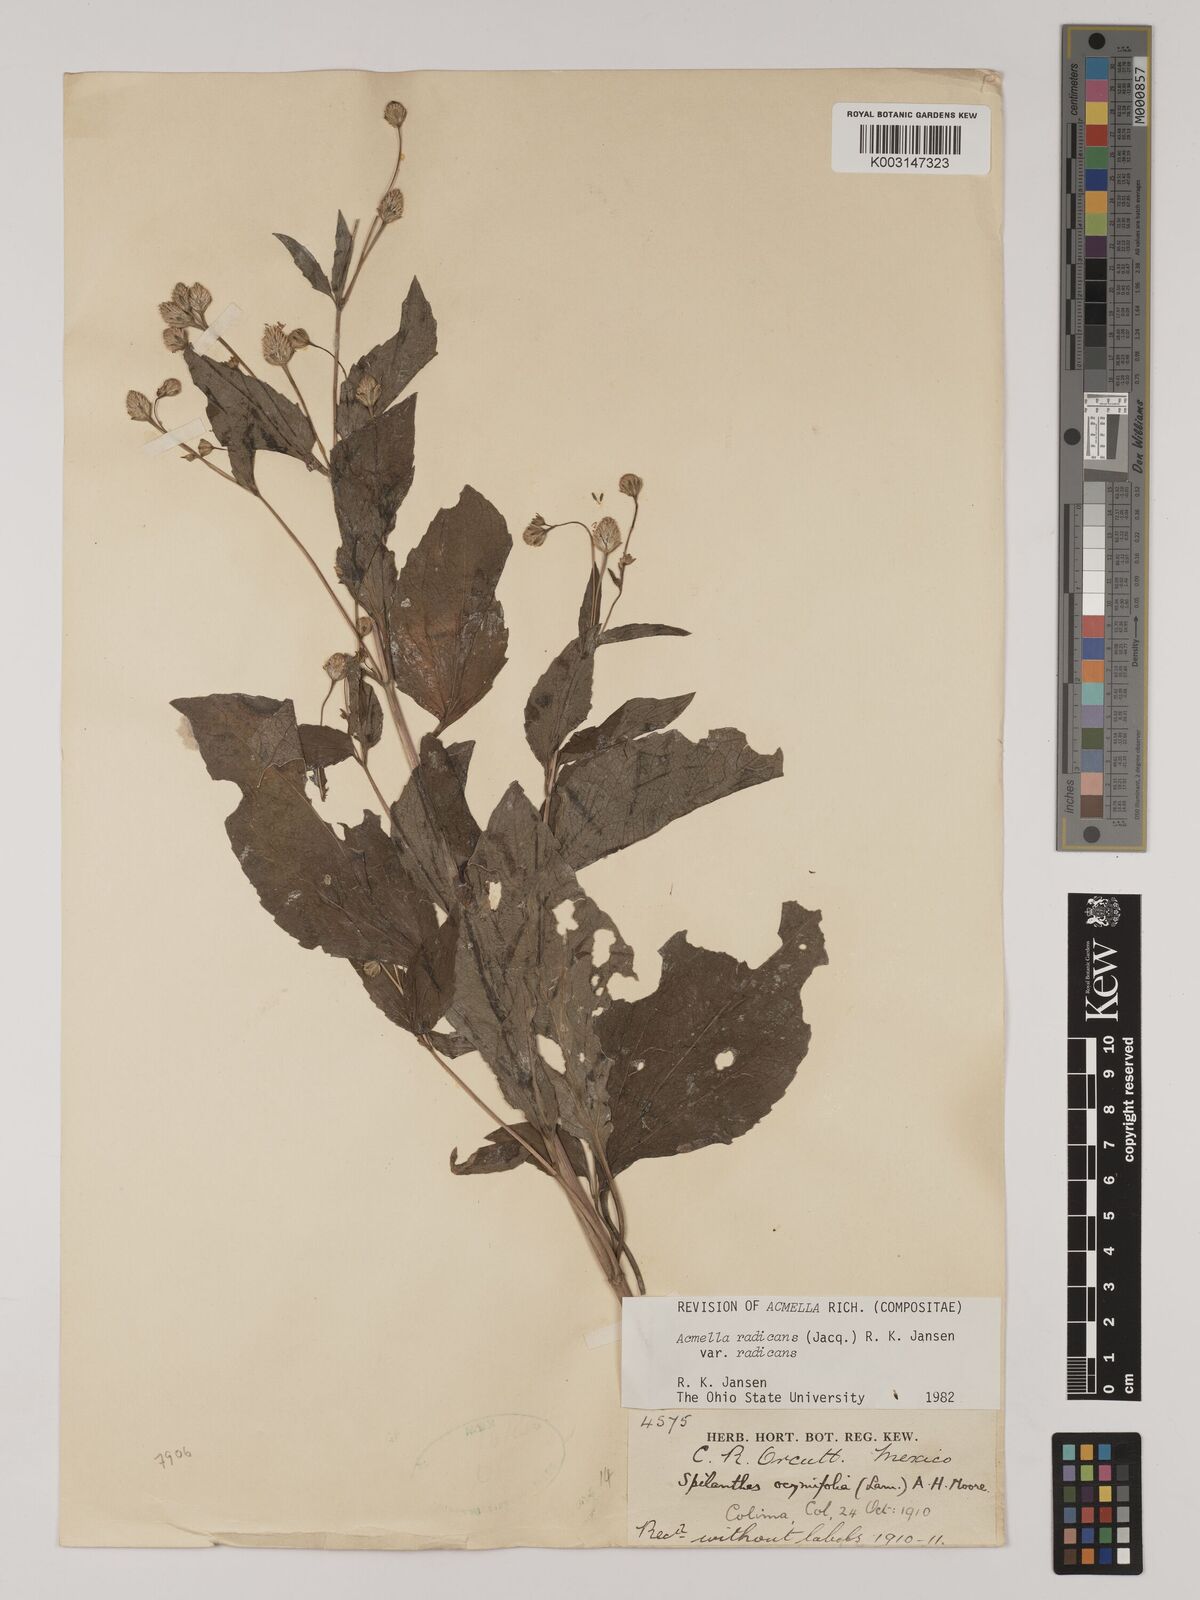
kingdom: Plantae
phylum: Tracheophyta
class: Magnoliopsida
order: Asterales
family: Asteraceae
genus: Acmella
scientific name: Acmella radicans
